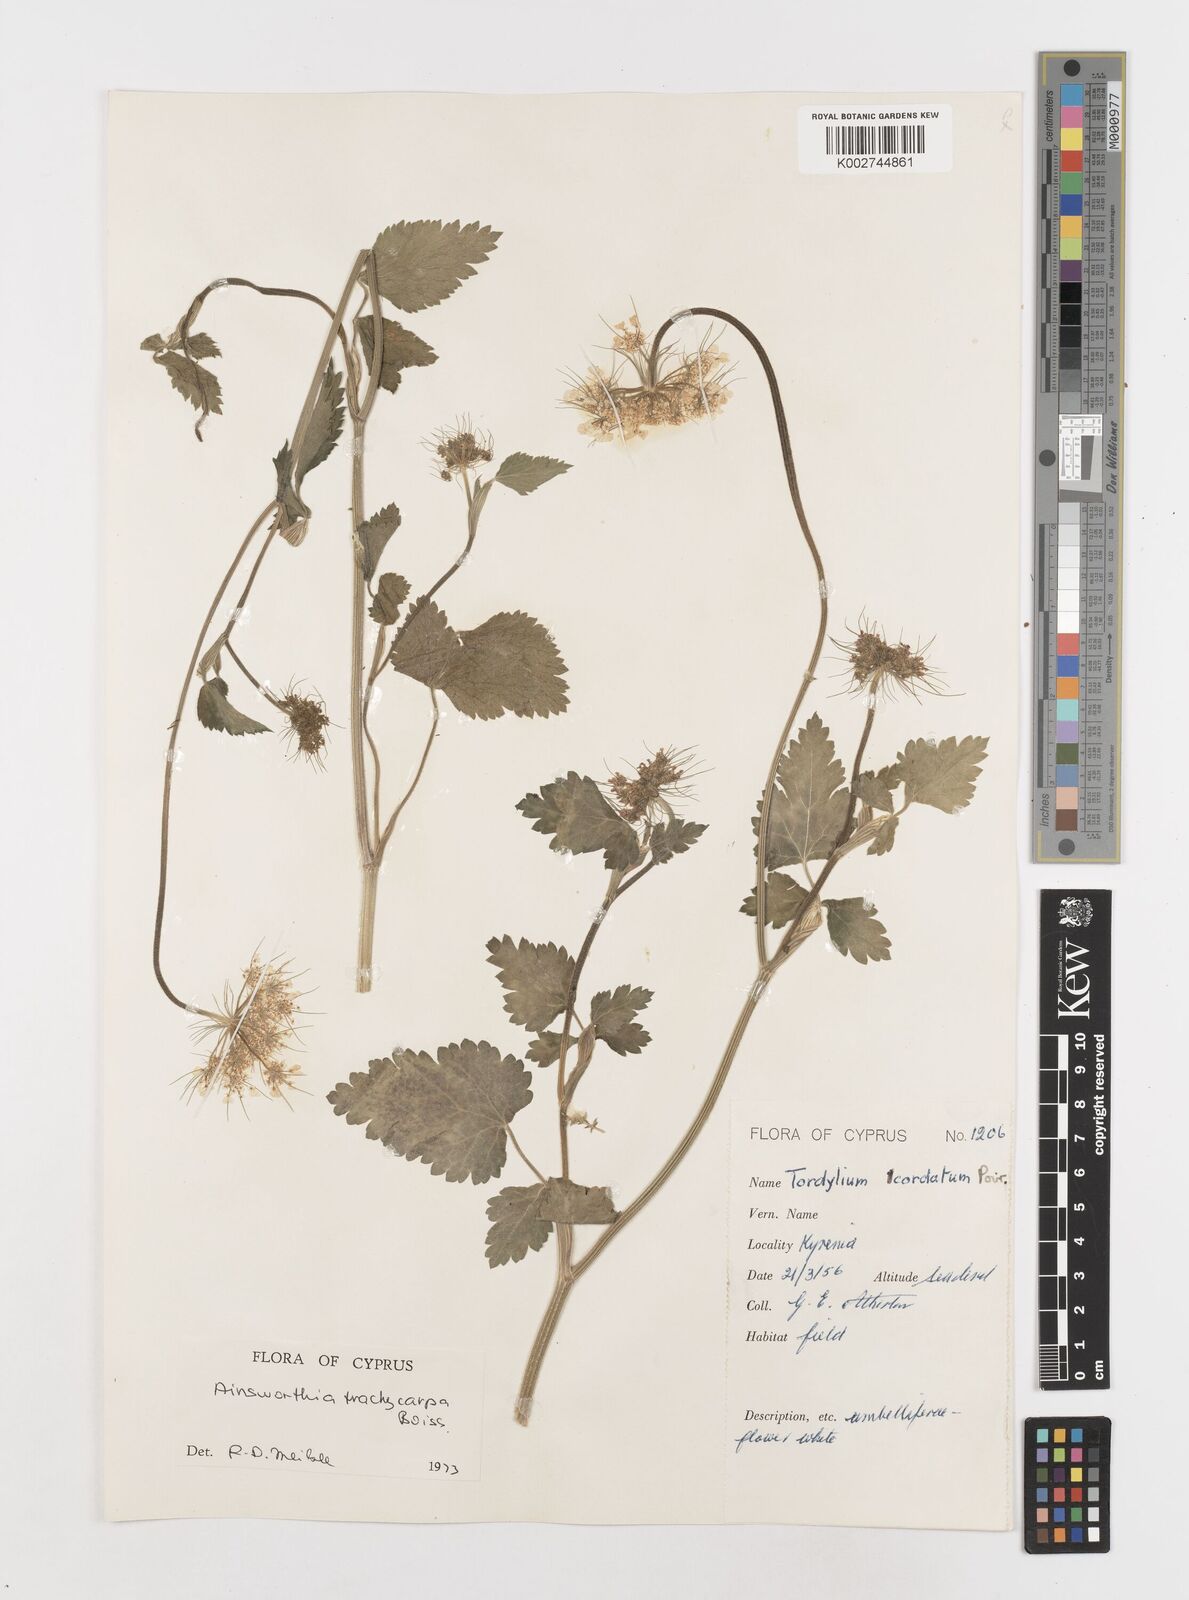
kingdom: Plantae
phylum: Tracheophyta
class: Magnoliopsida
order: Apiales
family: Apiaceae
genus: Ainsworthia
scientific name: Ainsworthia cordata
